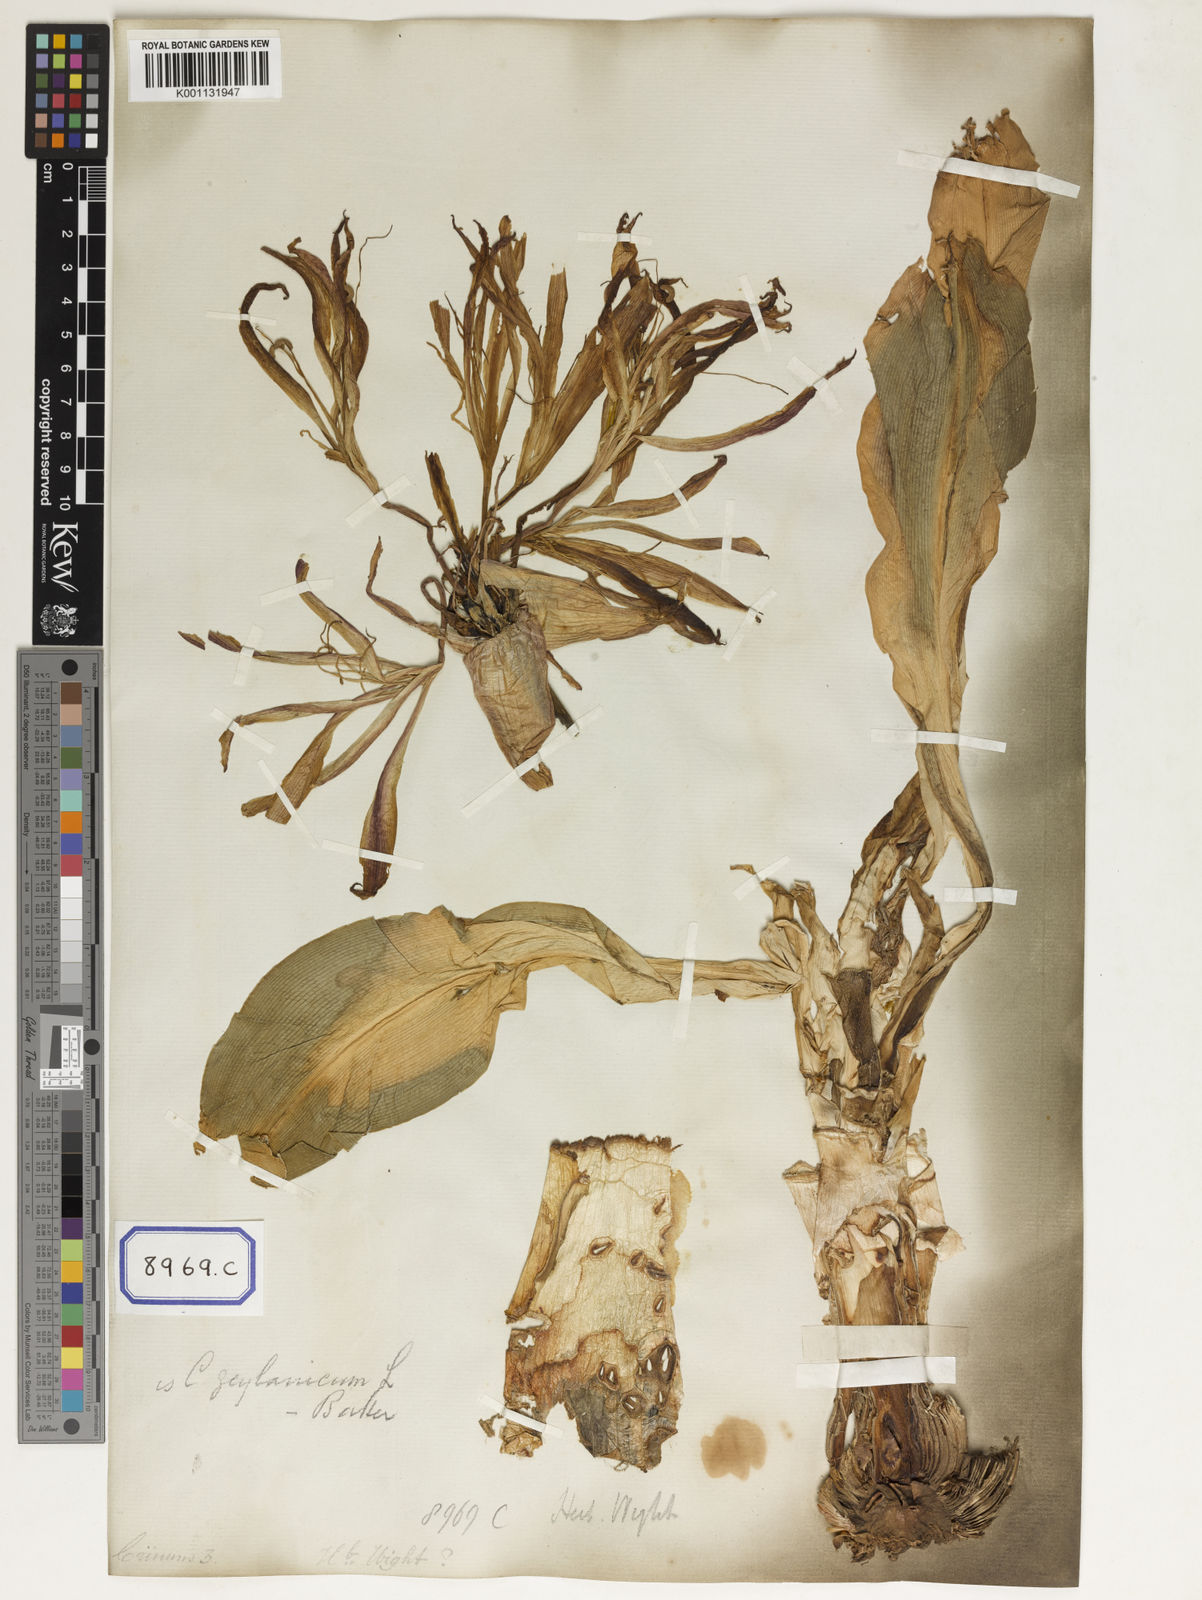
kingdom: Plantae
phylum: Tracheophyta
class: Liliopsida
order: Asparagales
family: Amaryllidaceae
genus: Crinum
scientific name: Crinum asiaticum
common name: Poisonbulb
